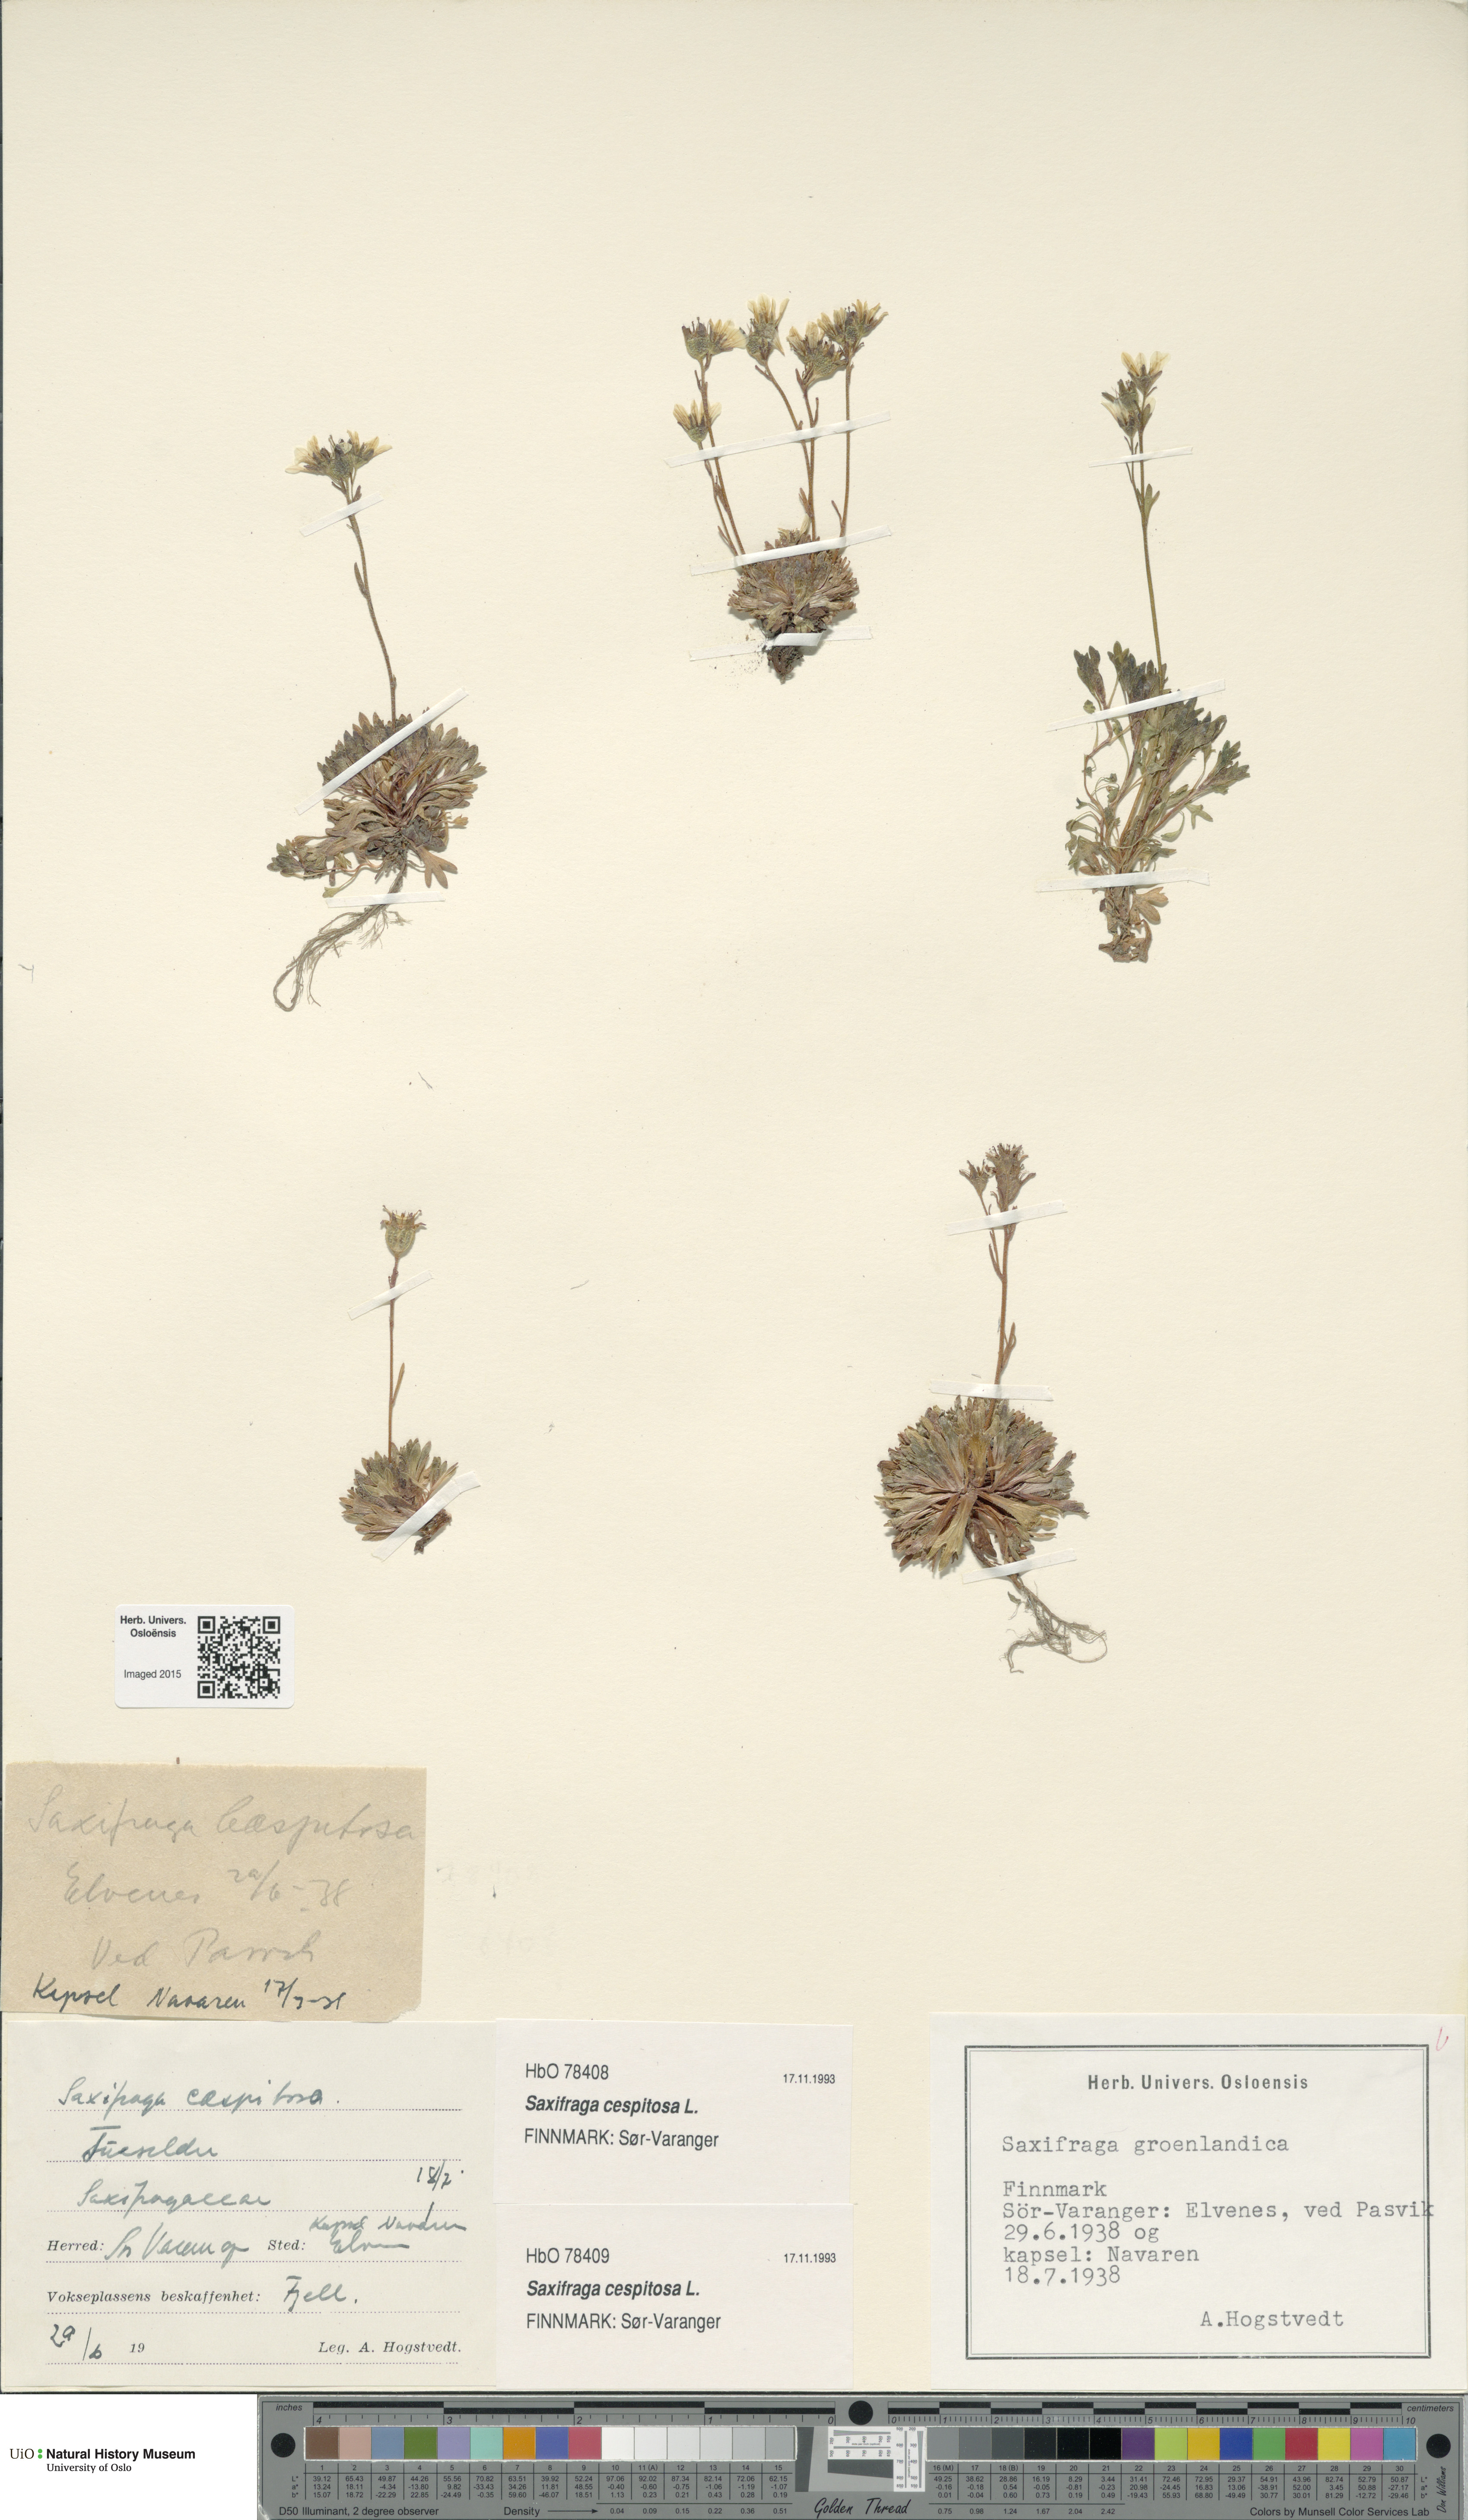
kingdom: Plantae
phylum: Tracheophyta
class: Magnoliopsida
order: Saxifragales
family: Saxifragaceae
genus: Saxifraga
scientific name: Saxifraga cespitosa
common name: Tufted saxifrage
